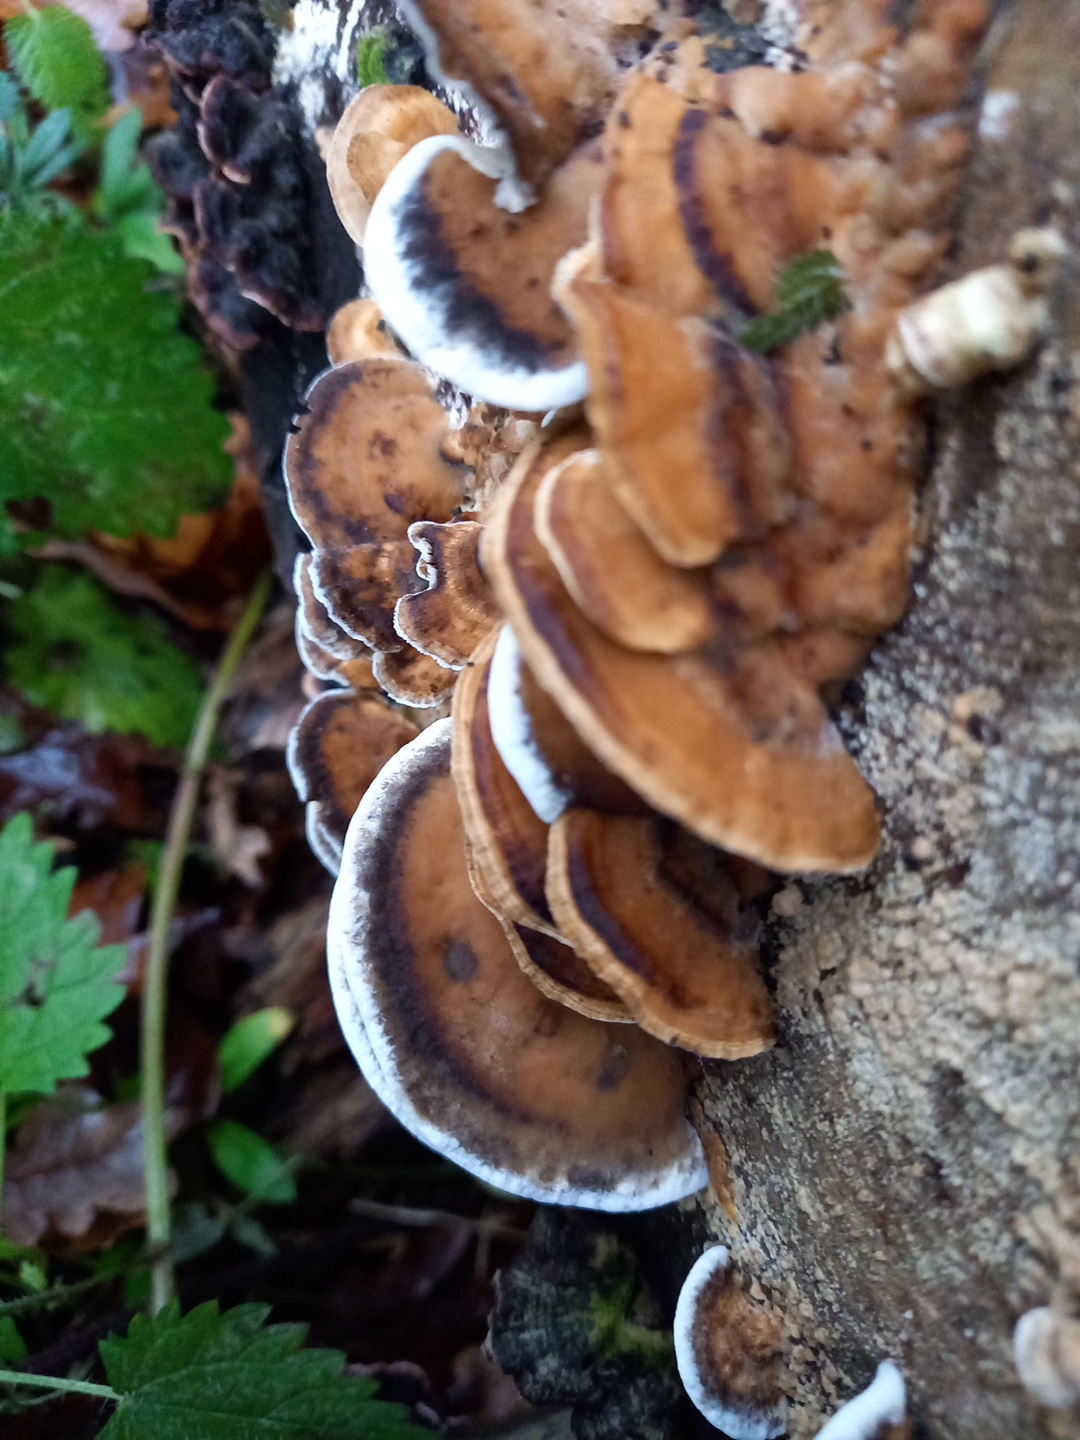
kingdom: Fungi
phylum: Basidiomycota
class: Agaricomycetes
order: Polyporales
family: Phanerochaetaceae
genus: Bjerkandera
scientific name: Bjerkandera adusta
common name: sveden sodporesvamp
